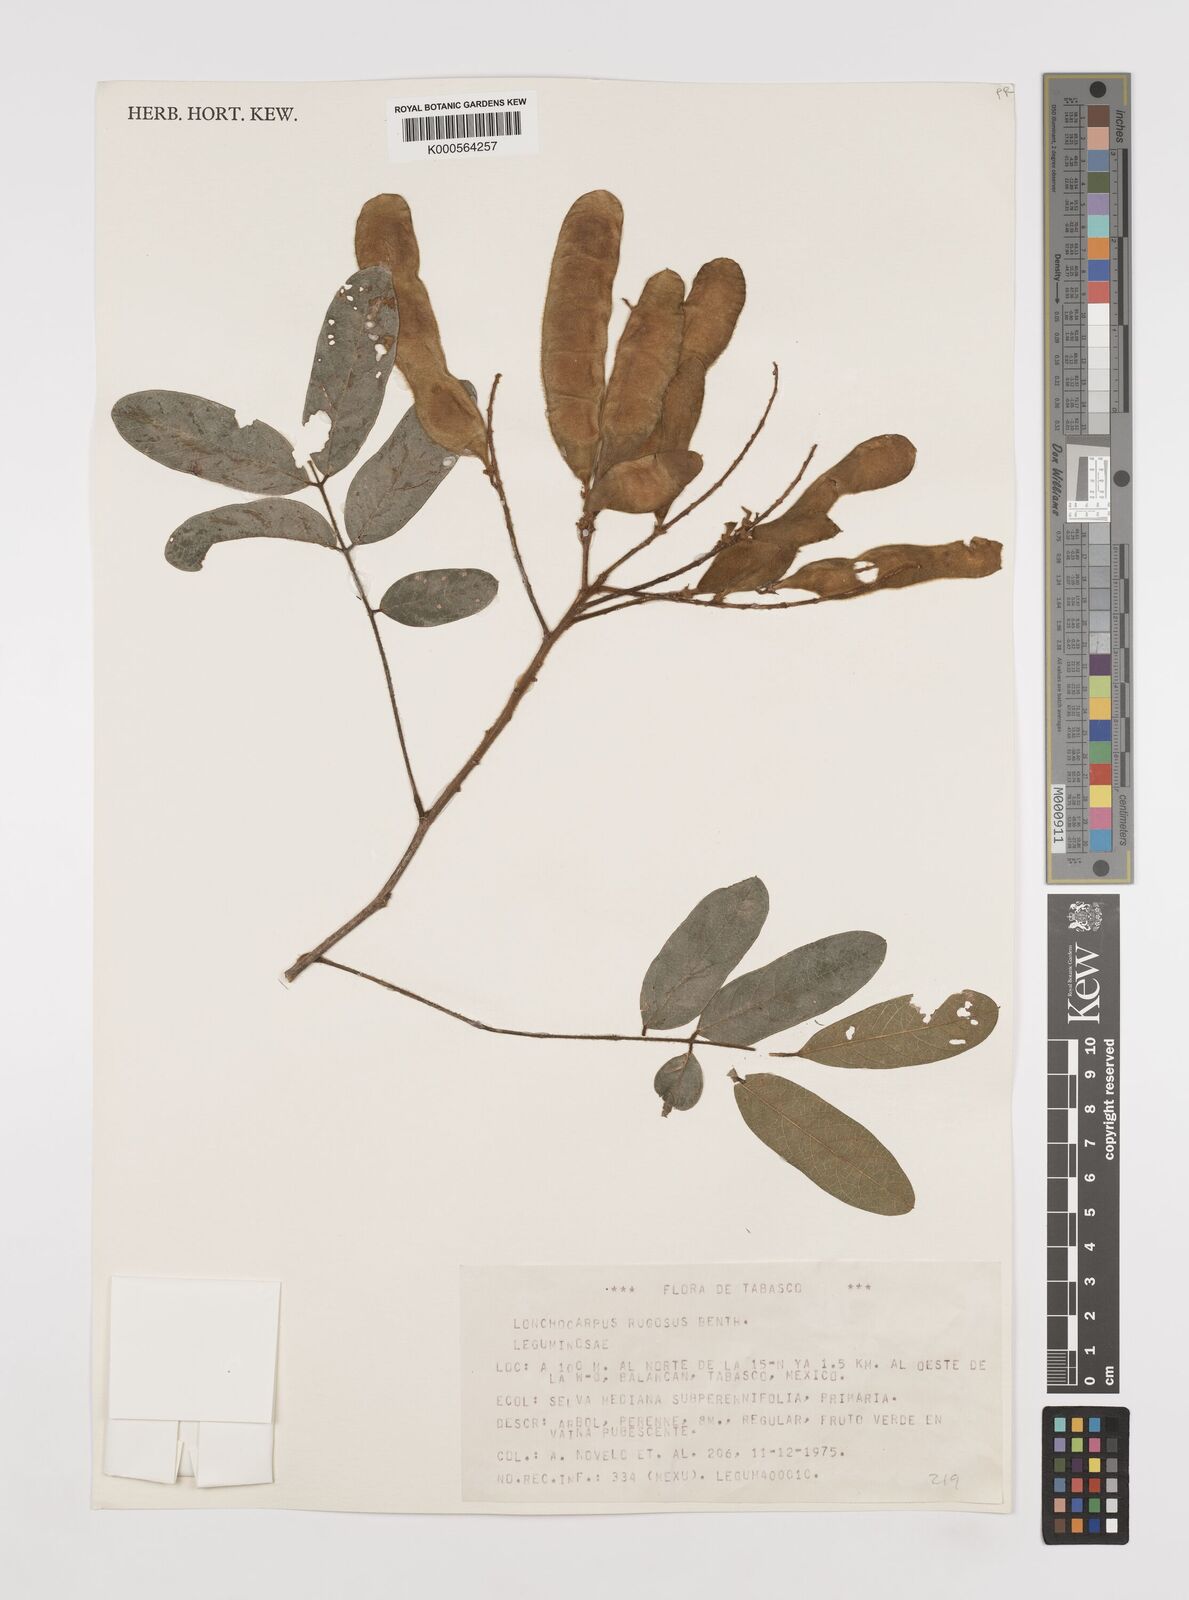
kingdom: Plantae
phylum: Tracheophyta
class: Magnoliopsida
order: Fabales
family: Fabaceae
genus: Lonchocarpus
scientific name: Lonchocarpus rugosus
